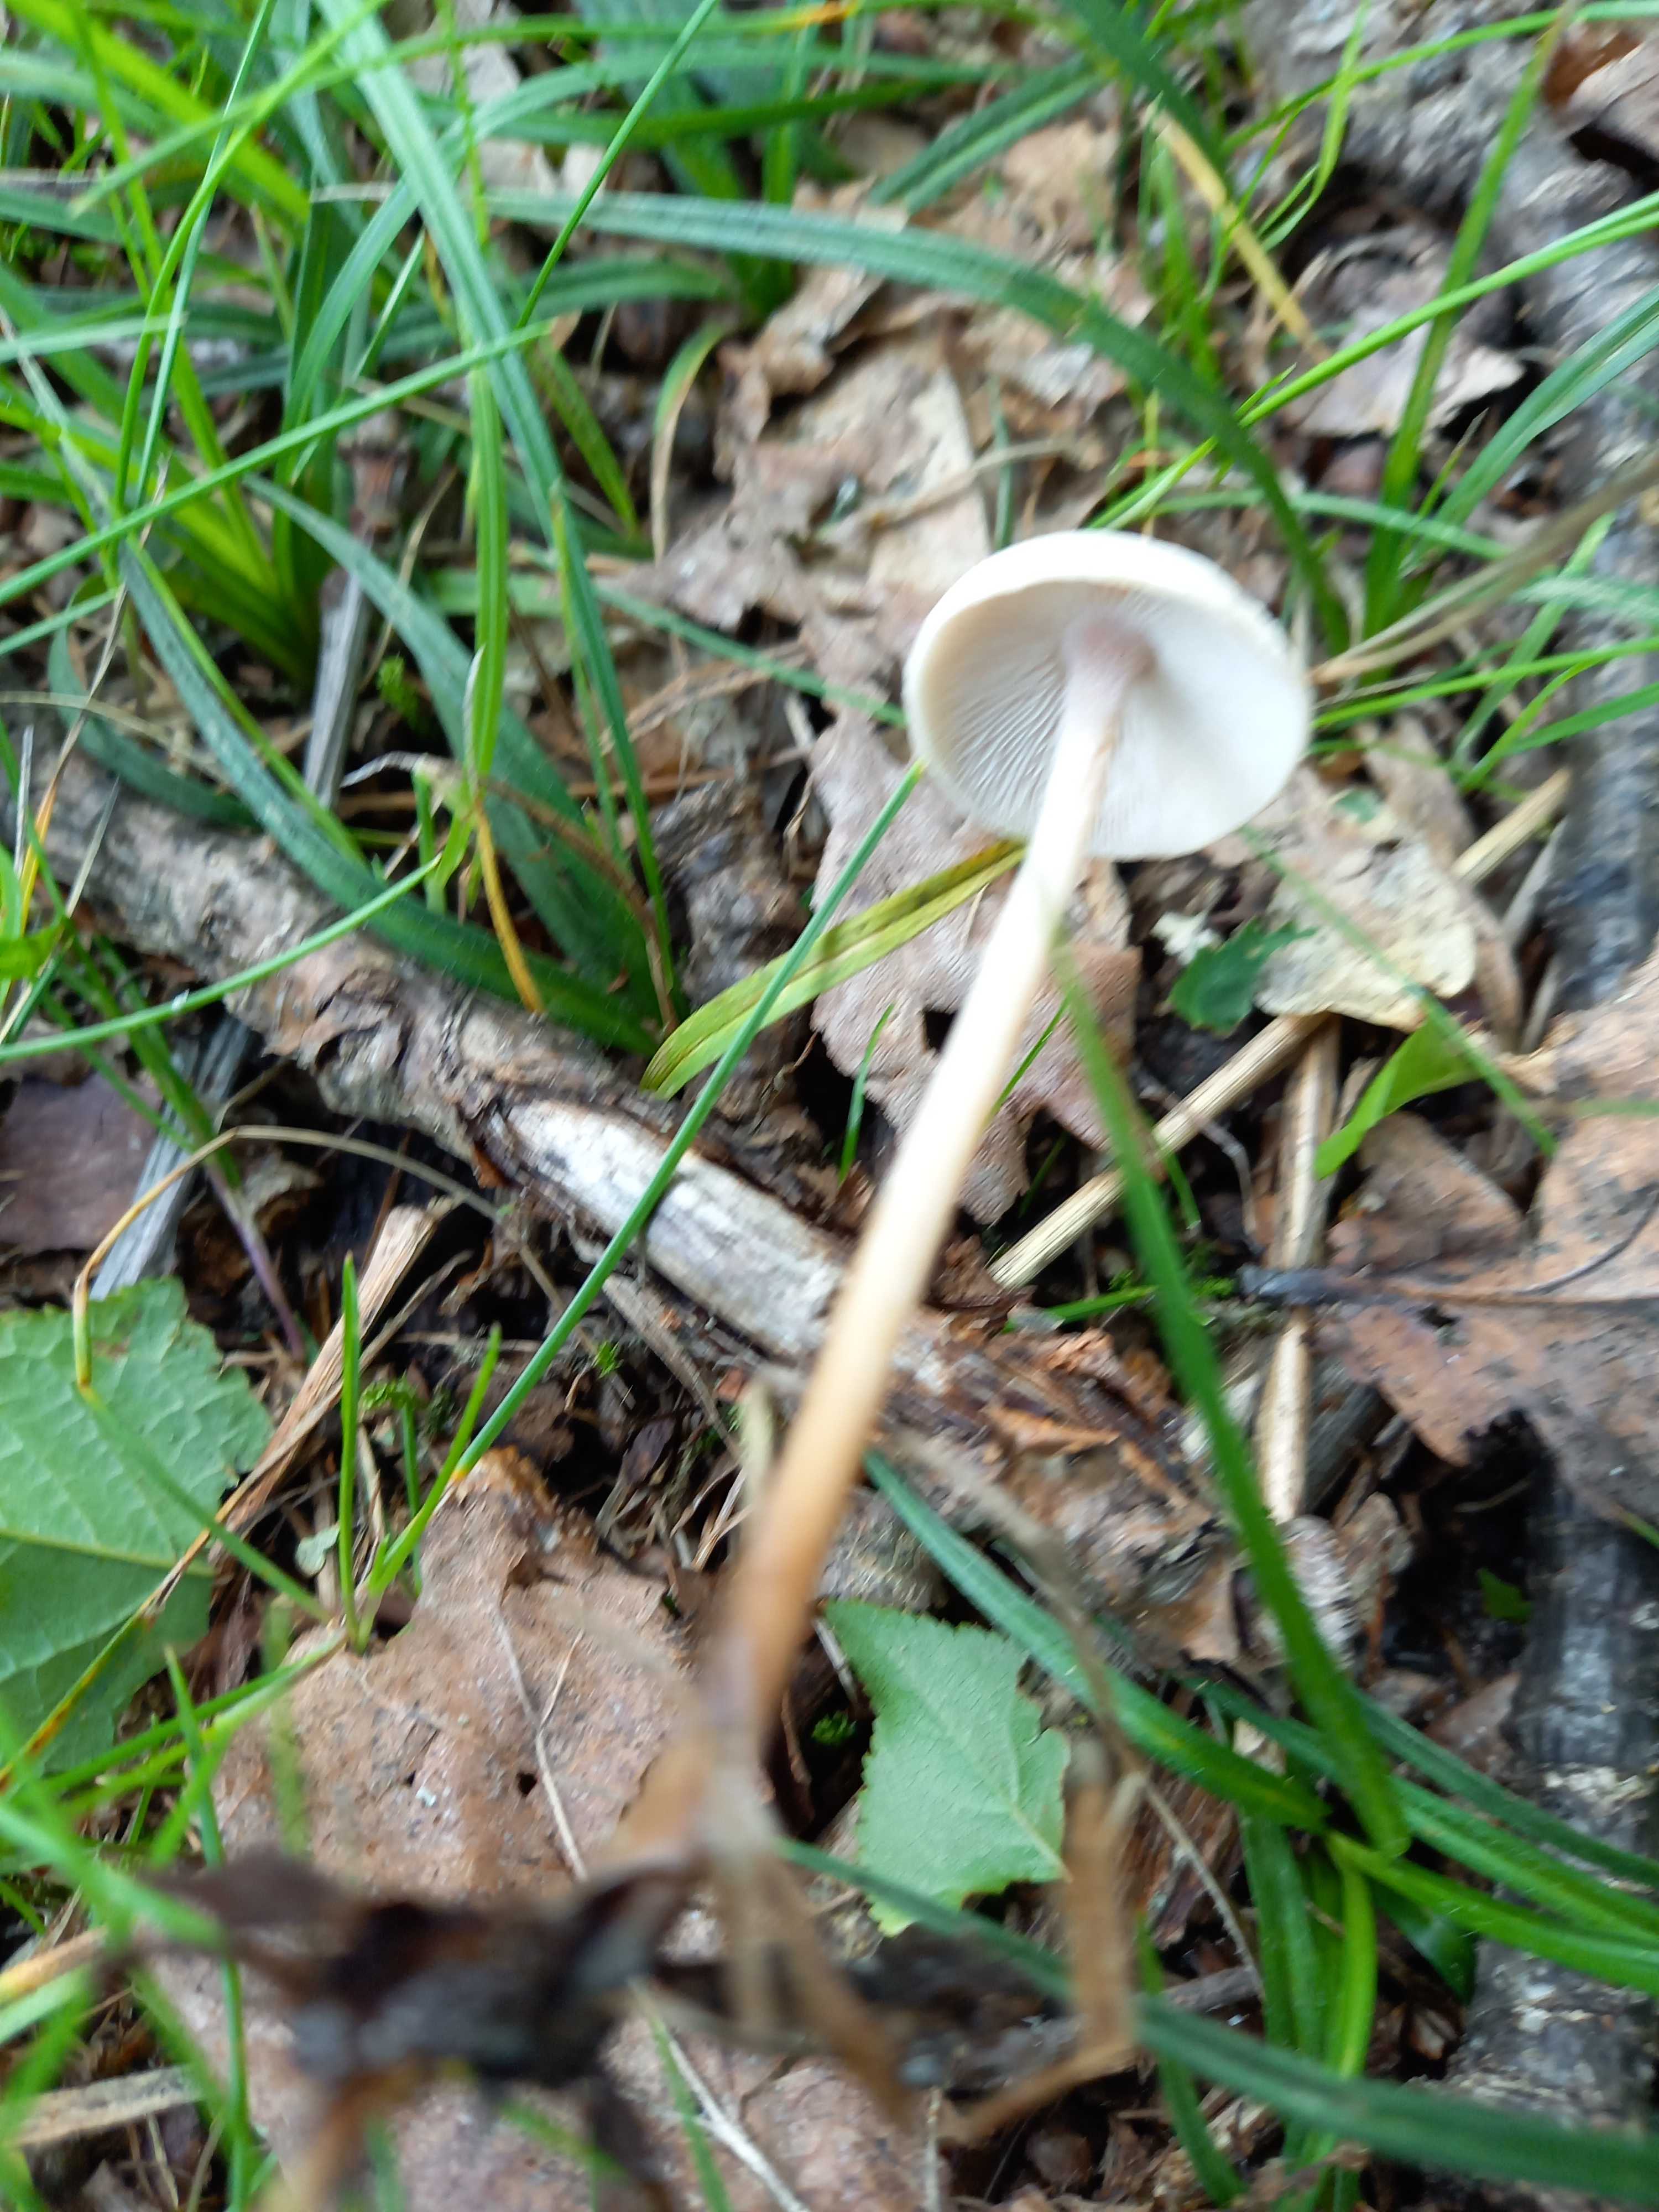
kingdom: Fungi
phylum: Basidiomycota
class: Agaricomycetes
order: Agaricales
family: Omphalotaceae
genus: Collybiopsis
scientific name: Collybiopsis confluens
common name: knippe-fladhat
